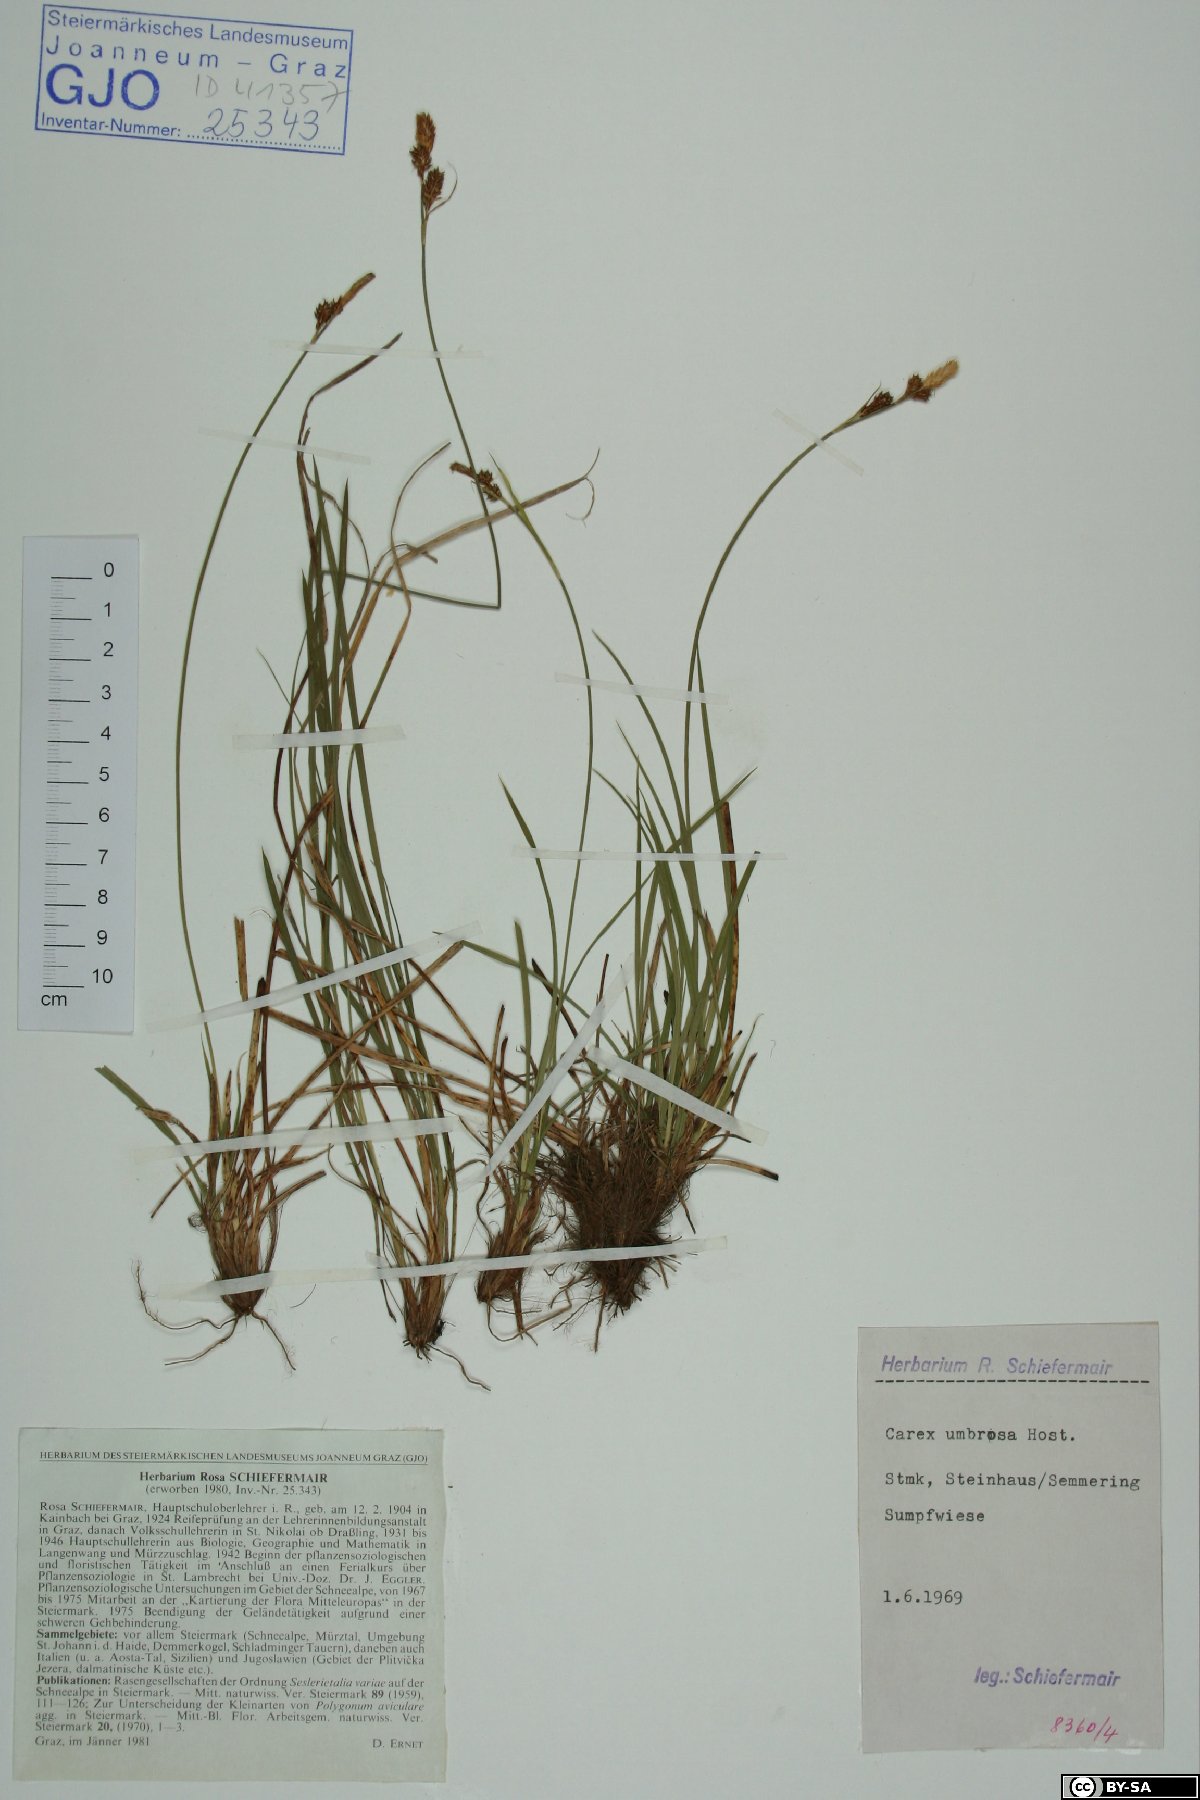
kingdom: Plantae
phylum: Tracheophyta
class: Liliopsida
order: Poales
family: Cyperaceae
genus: Carex
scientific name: Carex umbrosa
